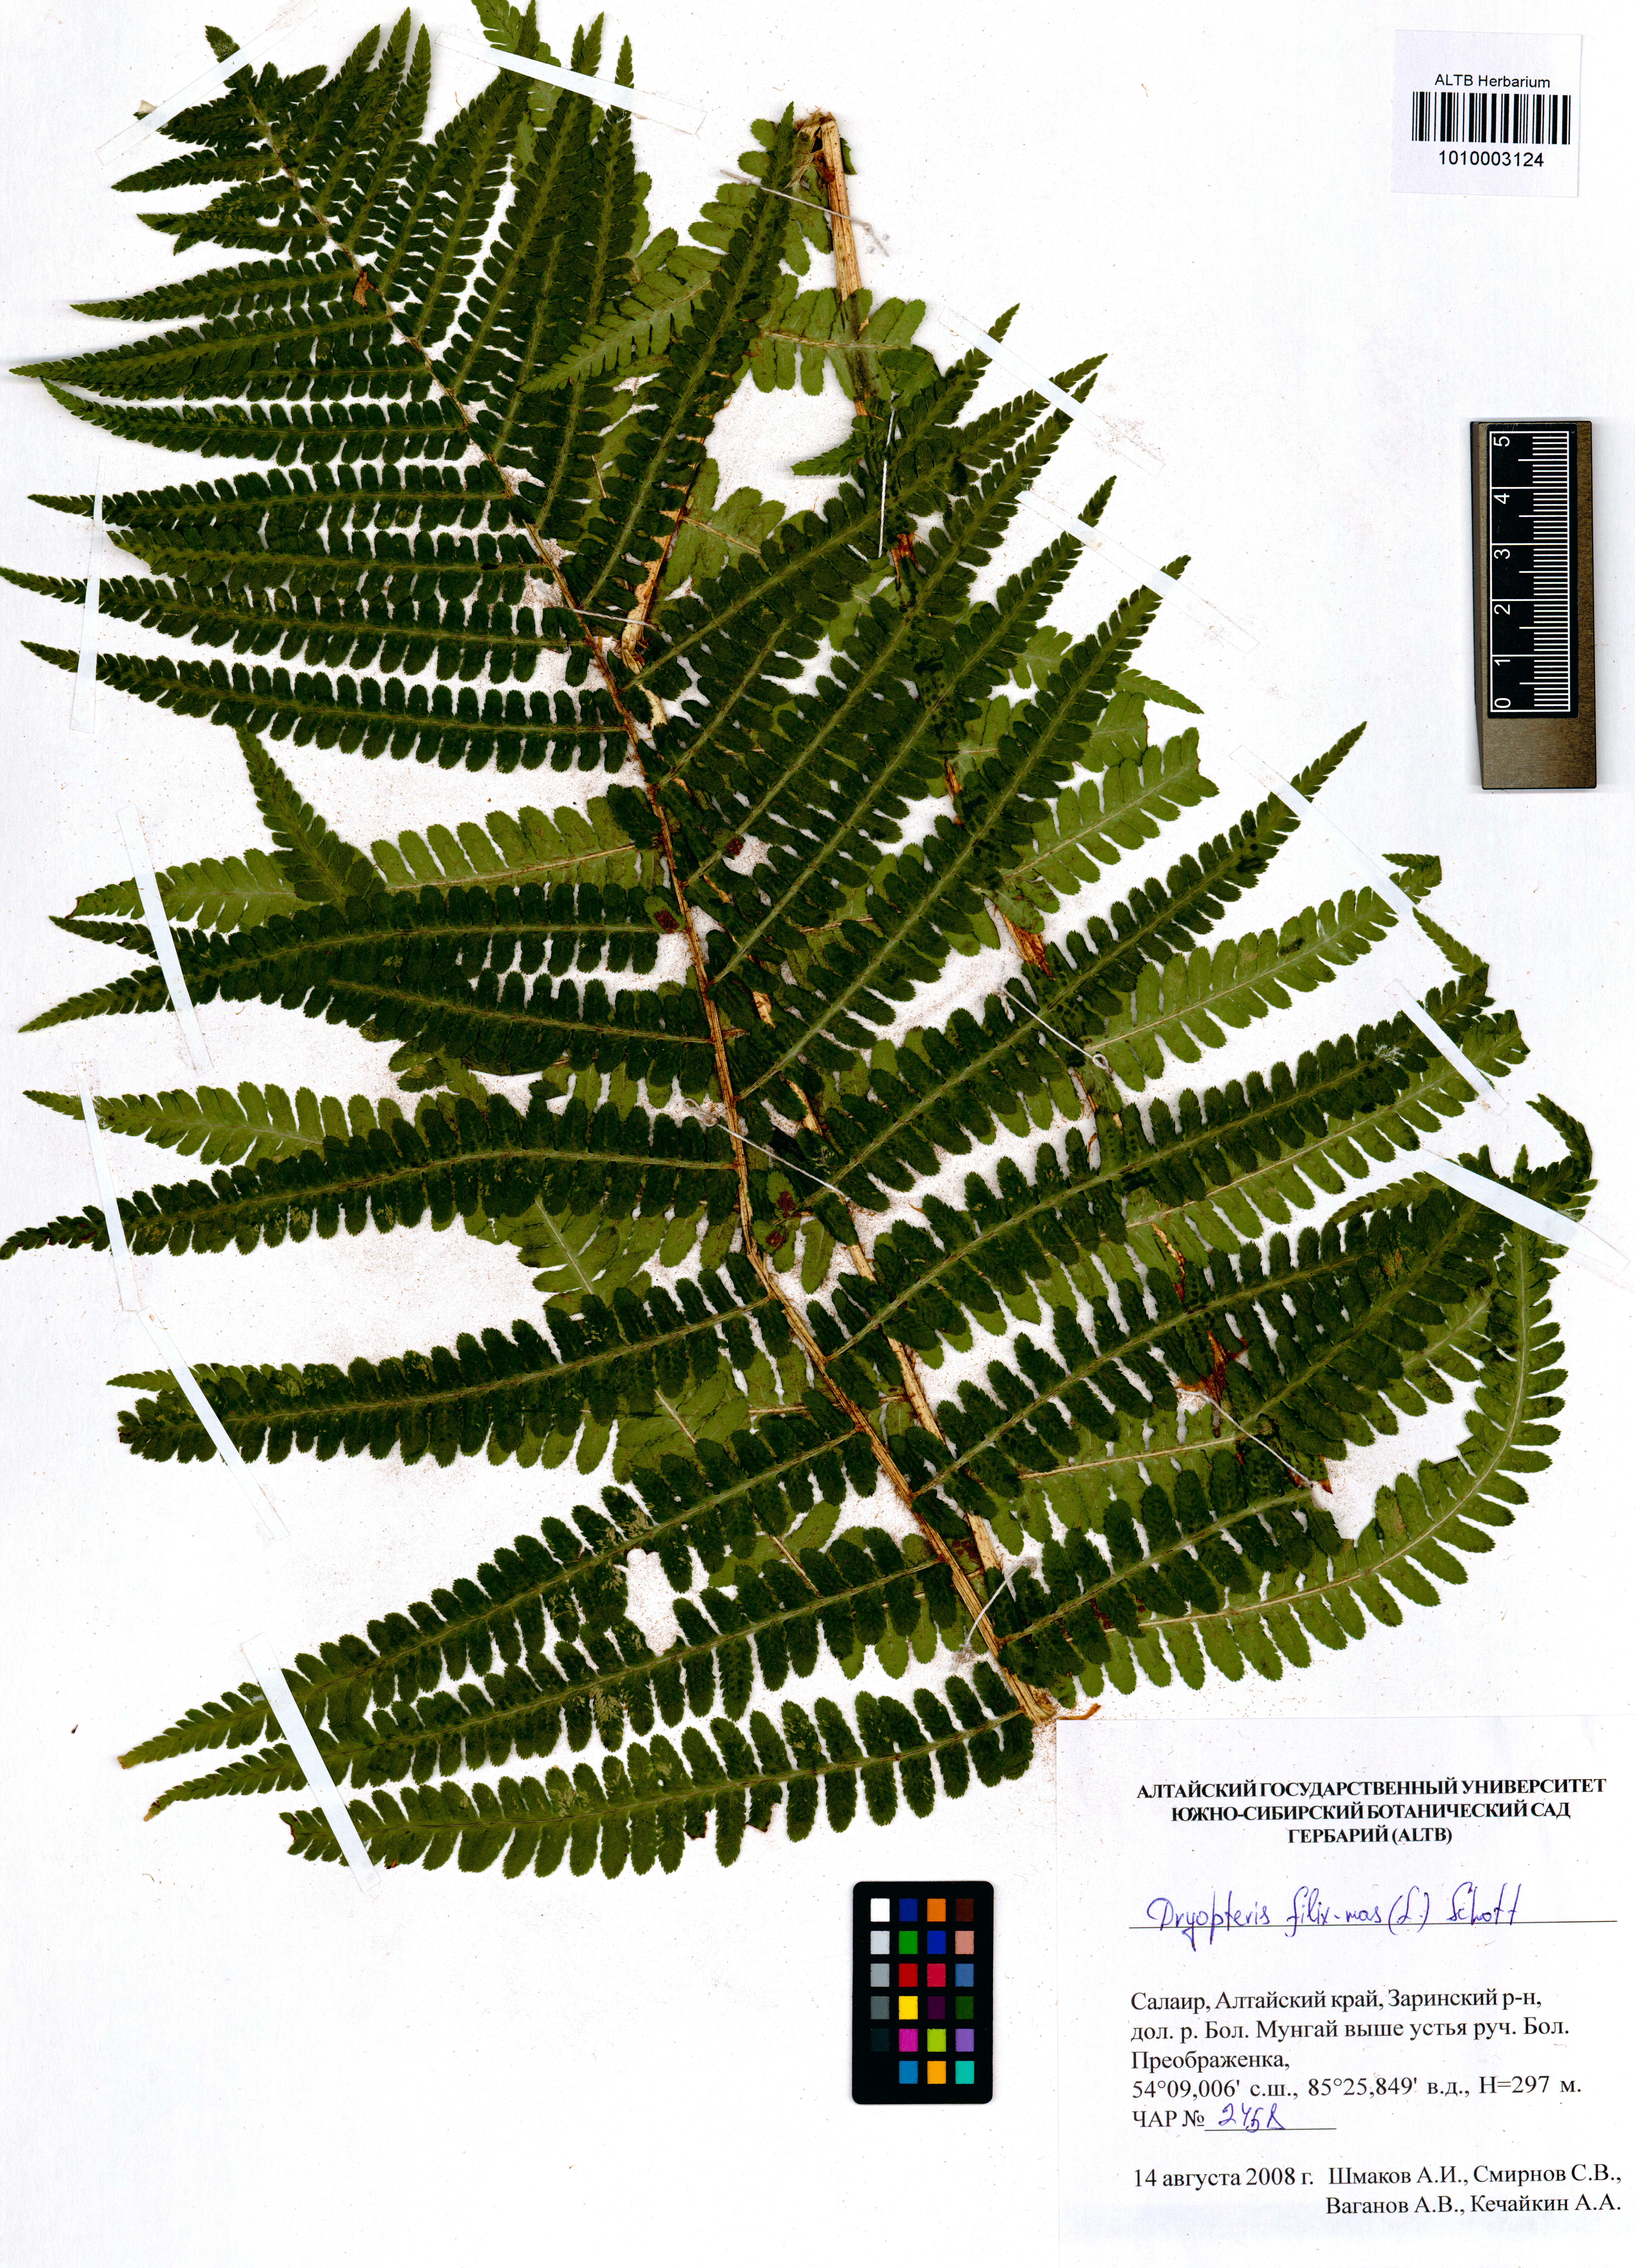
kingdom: Plantae
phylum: Tracheophyta
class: Polypodiopsida
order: Polypodiales
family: Dryopteridaceae
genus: Dryopteris
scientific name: Dryopteris filix-mas
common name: Male fern
